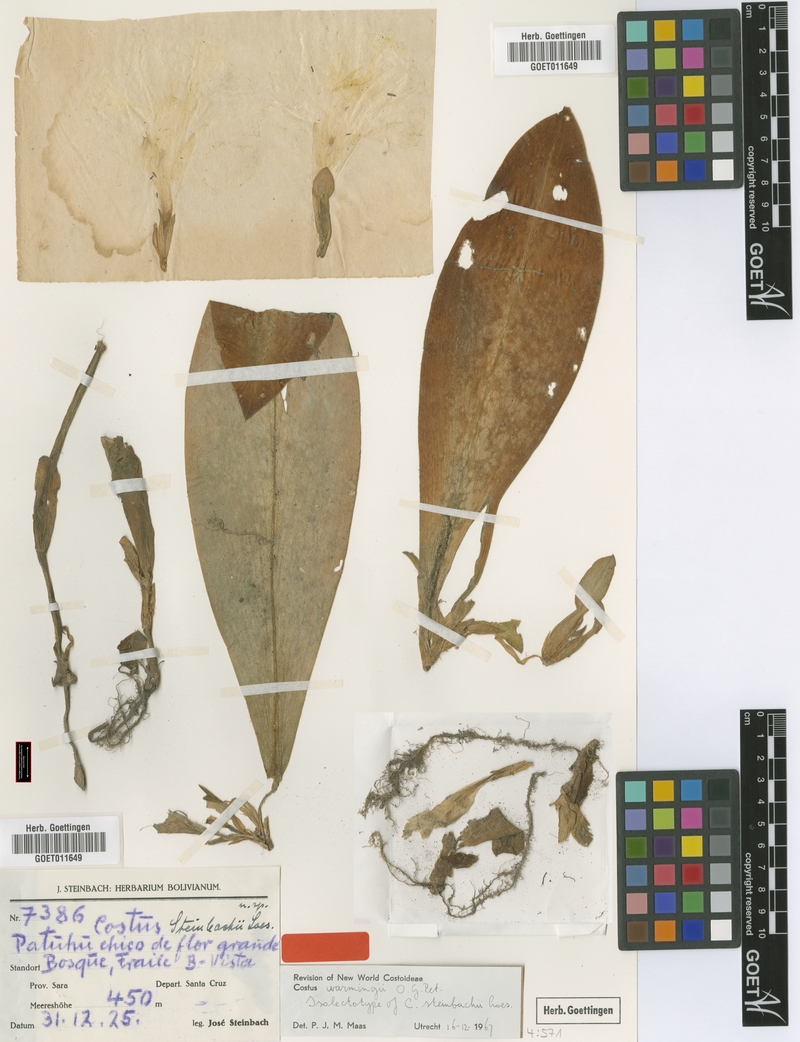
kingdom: Plantae
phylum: Tracheophyta
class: Liliopsida
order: Zingiberales
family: Costaceae
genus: Chamaecostus
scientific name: Chamaecostus subsessilis
